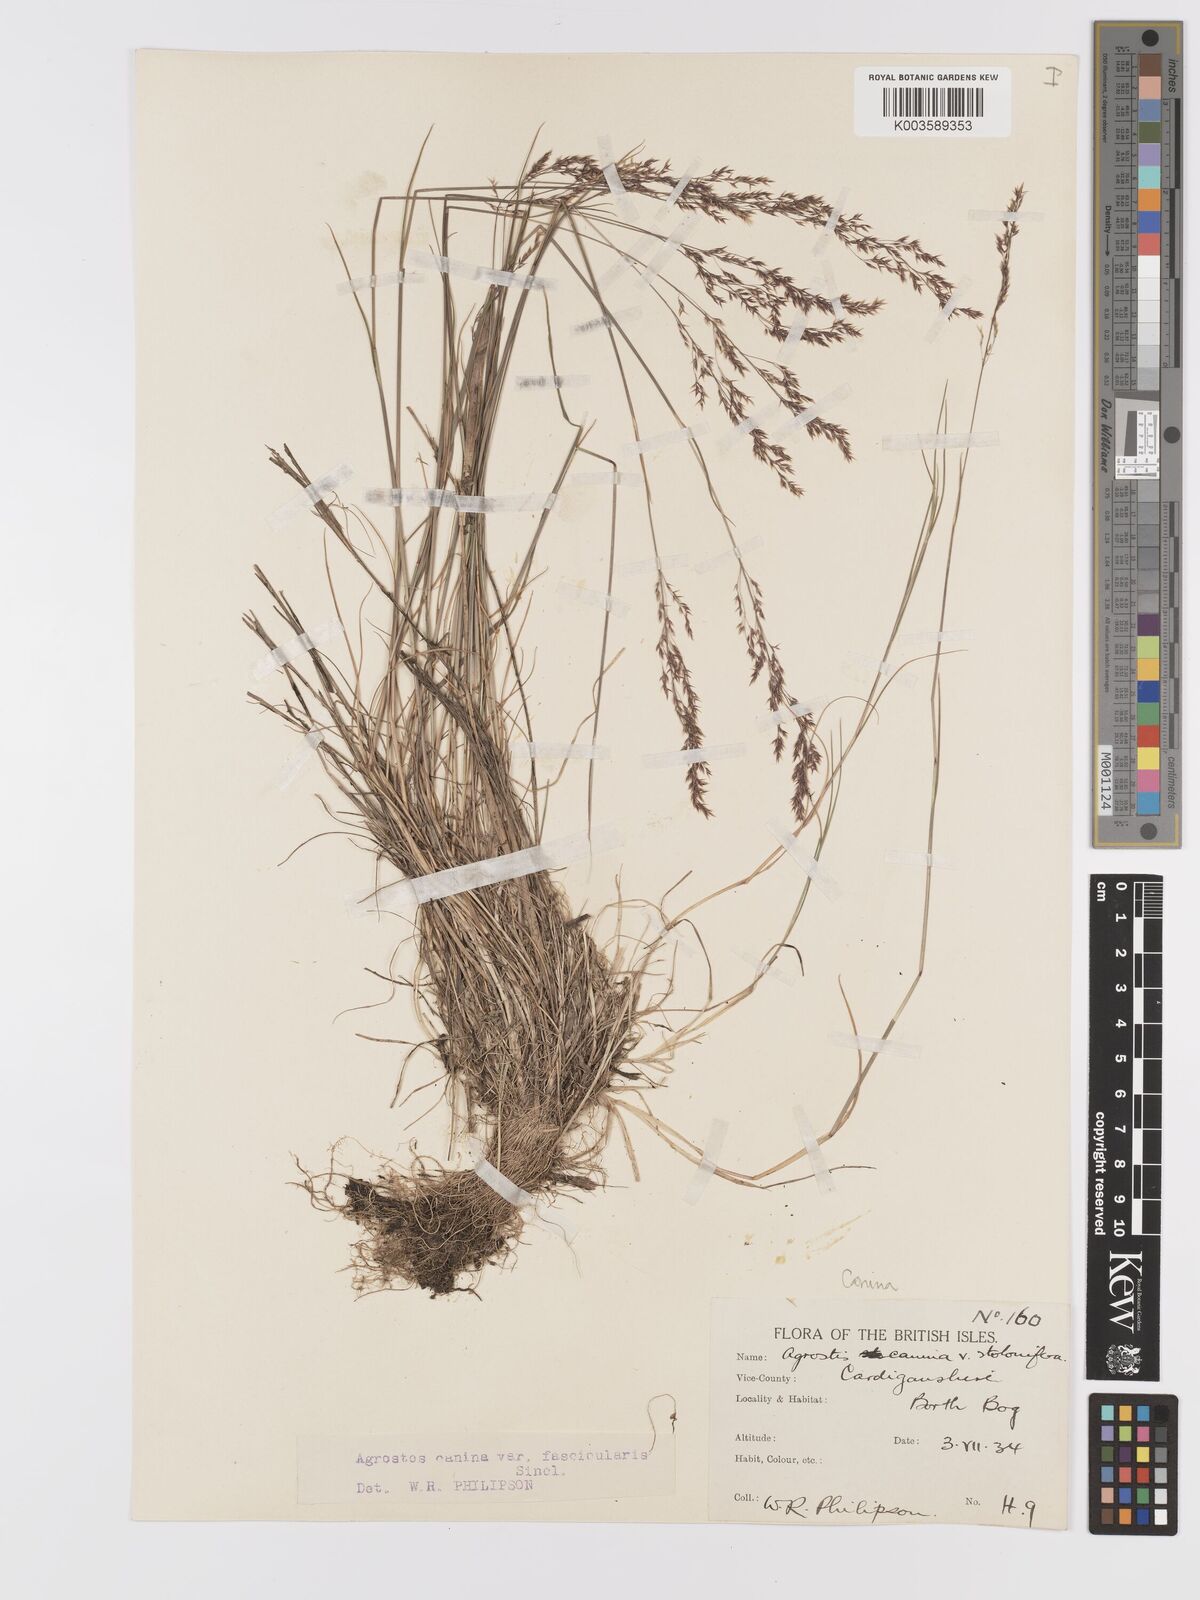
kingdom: Plantae
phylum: Tracheophyta
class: Liliopsida
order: Poales
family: Poaceae
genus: Agrostis
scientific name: Agrostis canina
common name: Velvet bent
